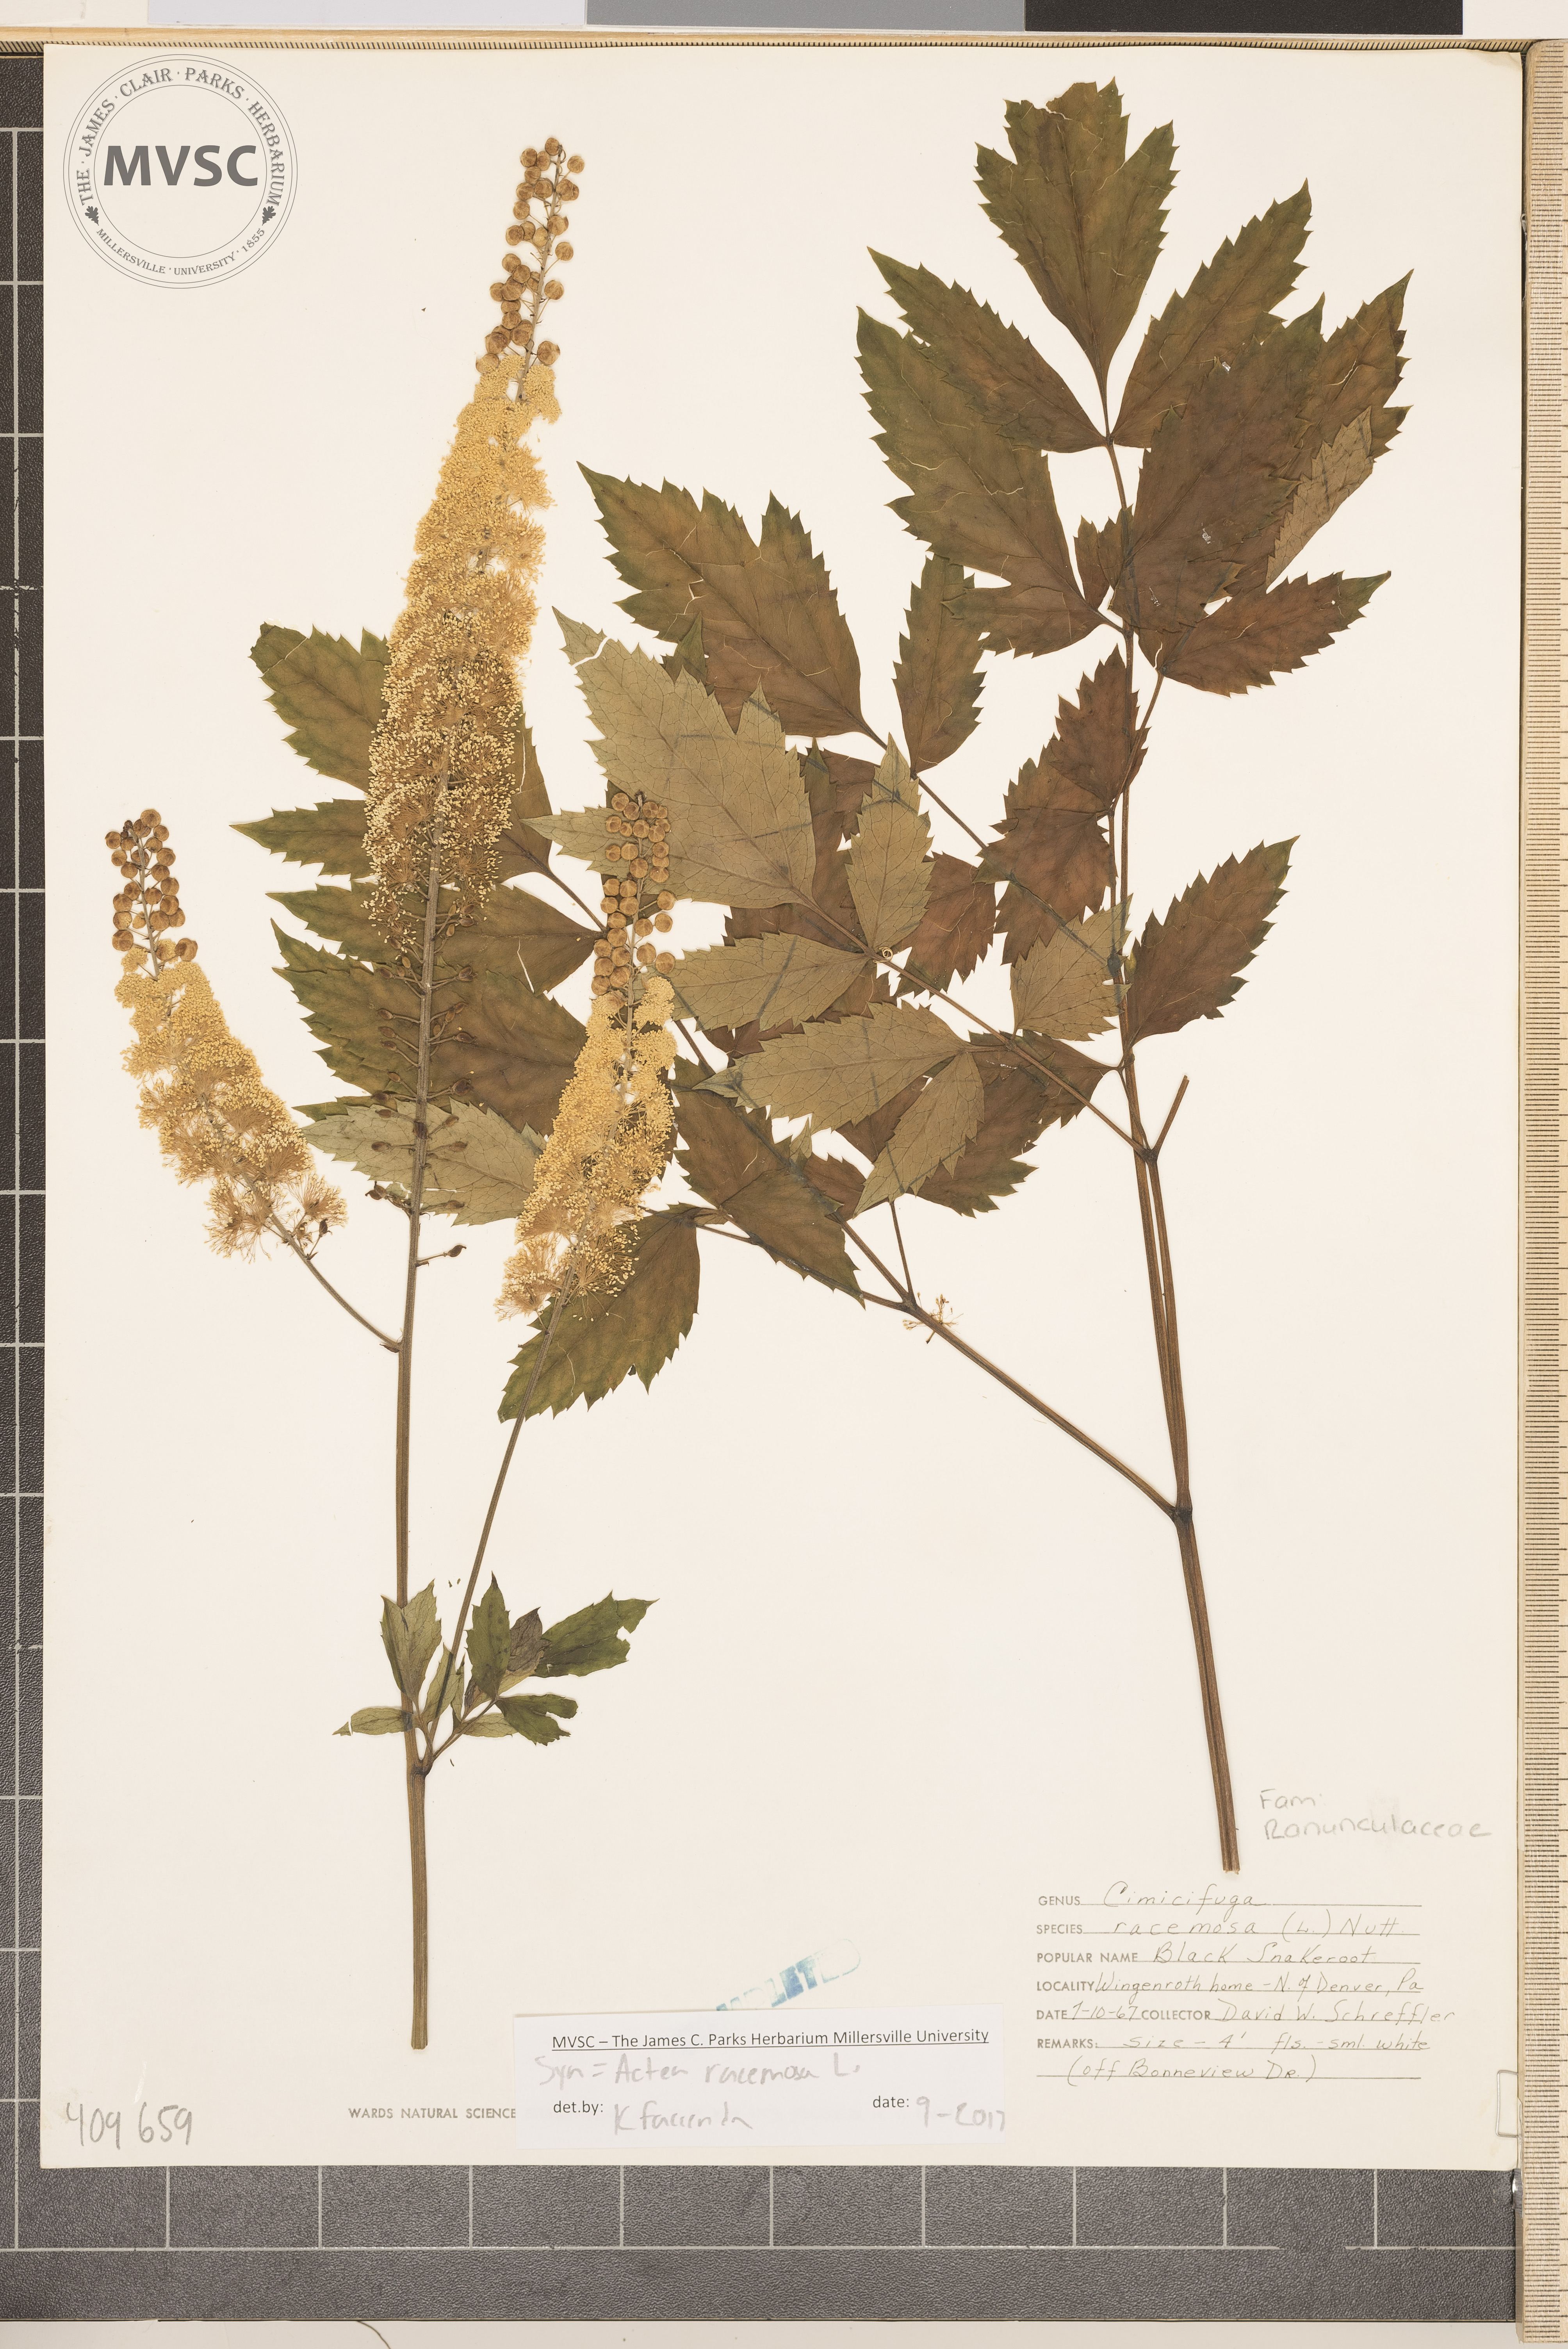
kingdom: Plantae
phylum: Tracheophyta
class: Magnoliopsida
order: Ranunculales
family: Ranunculaceae
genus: Actaea
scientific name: Actaea racemosa
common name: Black cohosh
